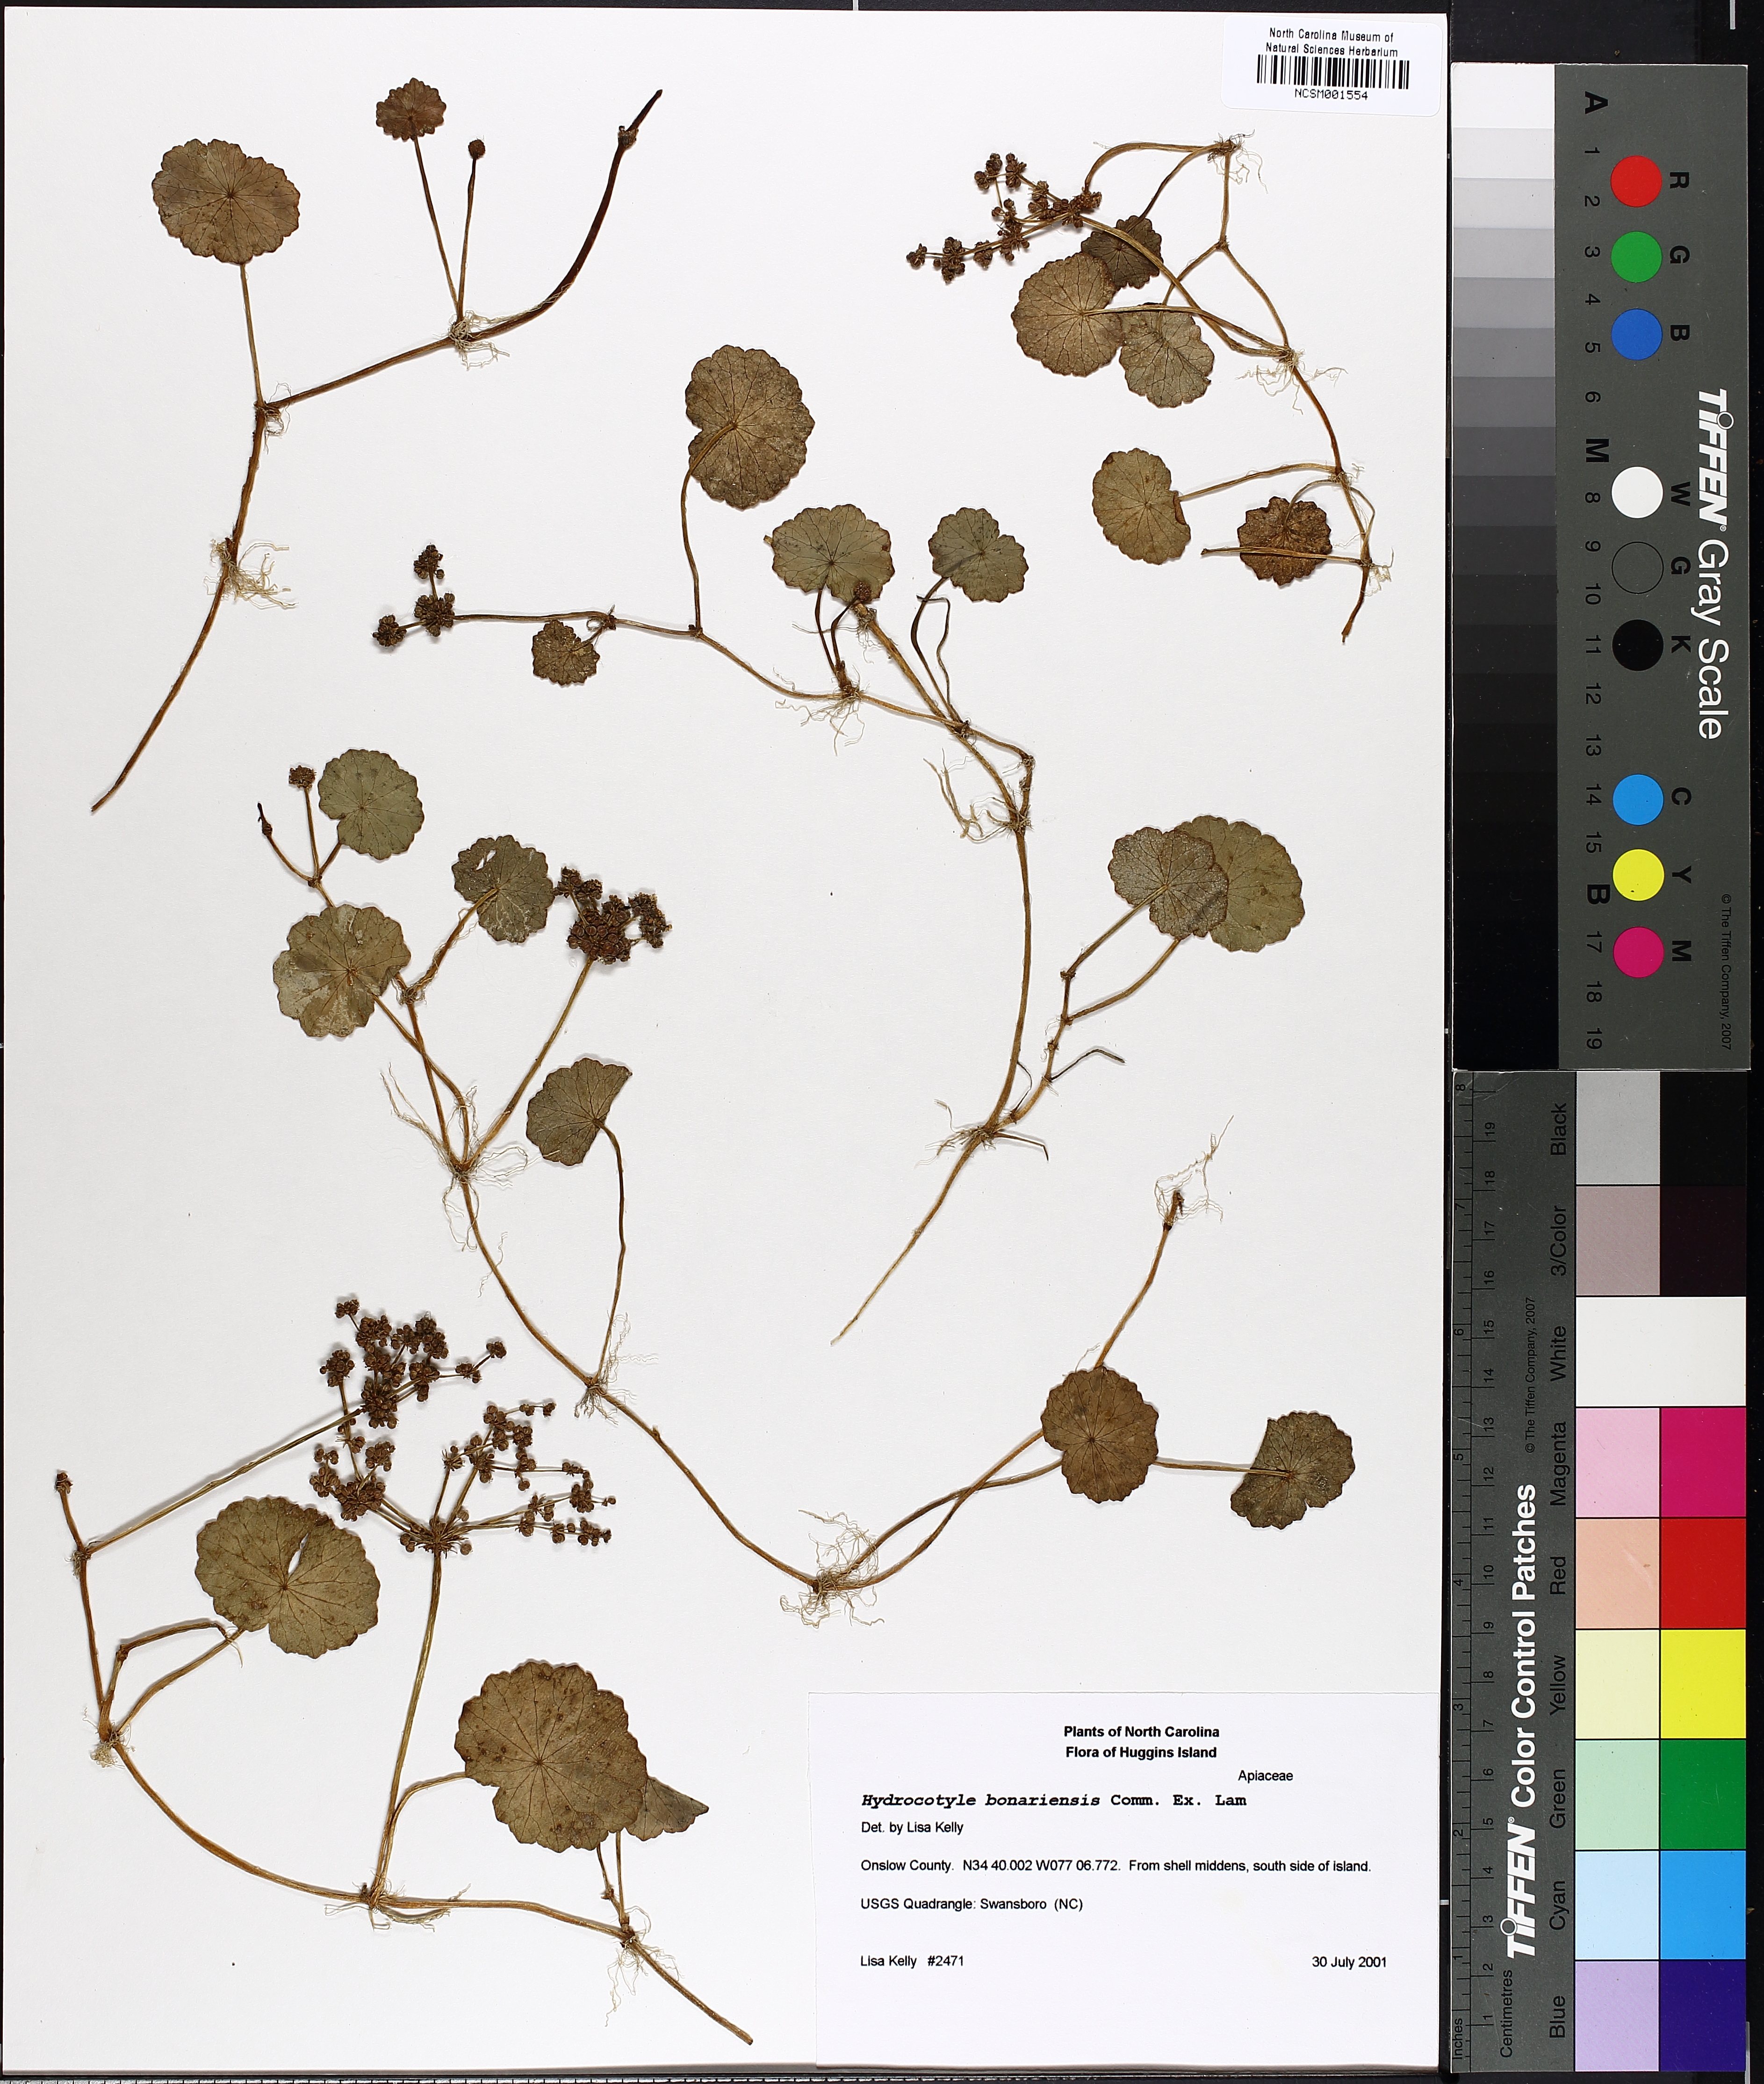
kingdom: Plantae
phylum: Tracheophyta
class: Magnoliopsida
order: Apiales
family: Araliaceae
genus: Hydrocotyle
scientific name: Hydrocotyle bonariensis
